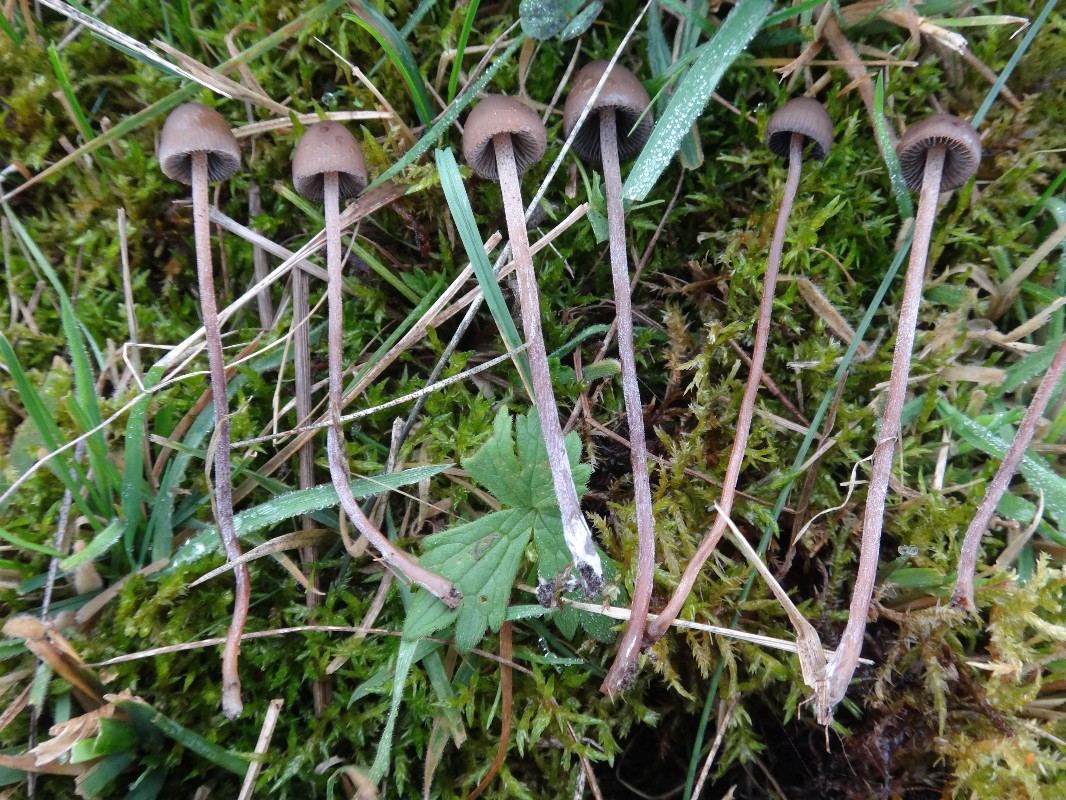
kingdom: Fungi
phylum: Basidiomycota
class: Agaricomycetes
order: Agaricales
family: Bolbitiaceae
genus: Panaeolus
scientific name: Panaeolus acuminatus
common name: høj glanshat
